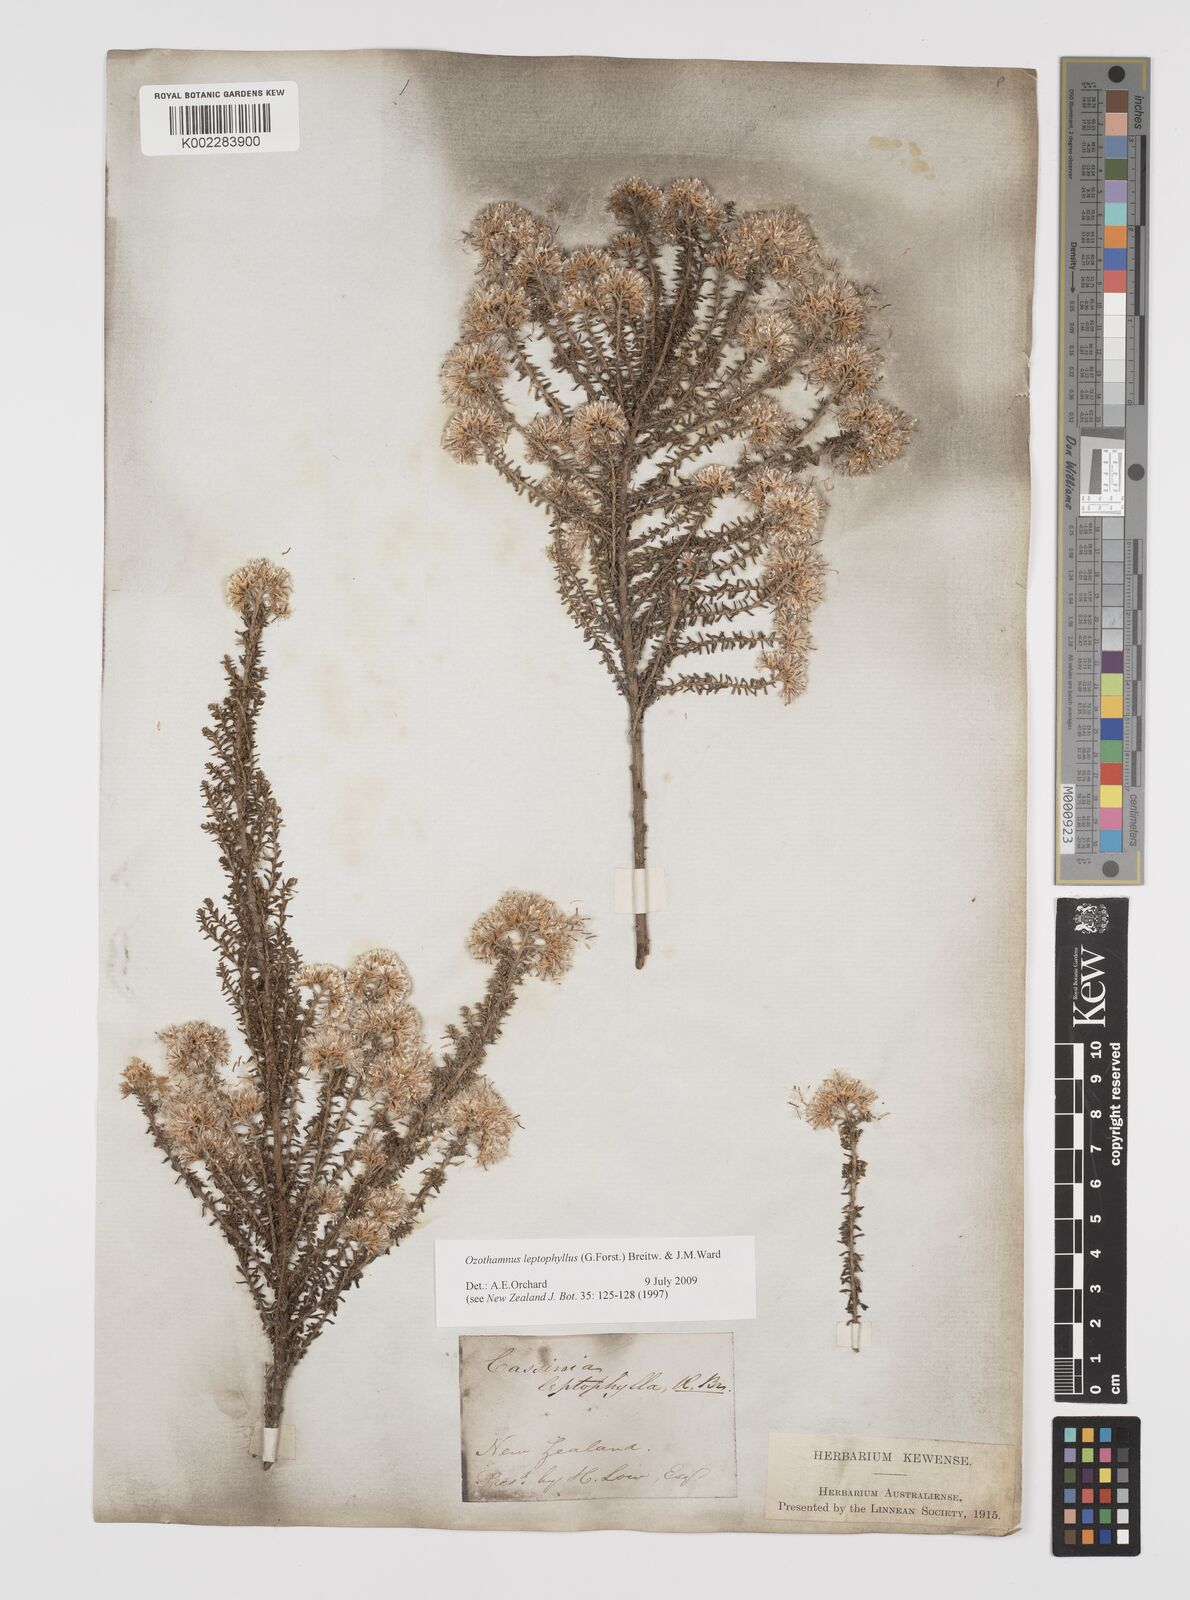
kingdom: Plantae
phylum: Tracheophyta
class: Magnoliopsida
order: Asterales
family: Asteraceae
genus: Ozothamnus
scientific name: Ozothamnus leptophyllus
